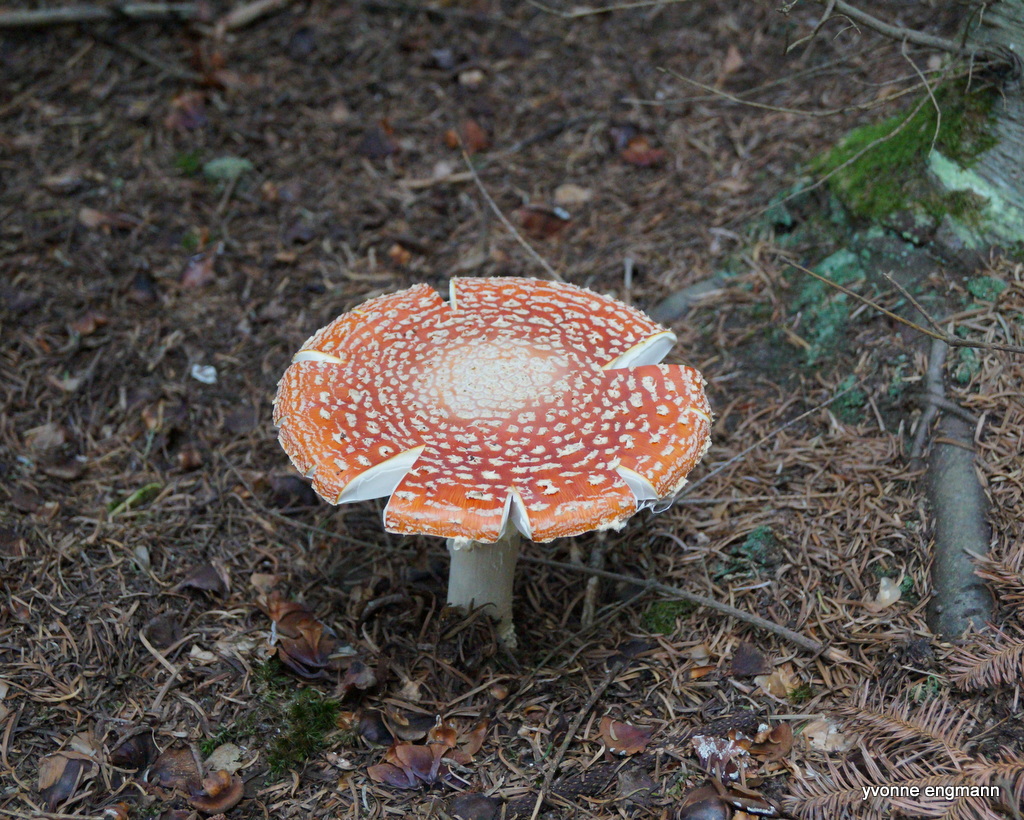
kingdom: Fungi
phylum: Basidiomycota
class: Agaricomycetes
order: Agaricales
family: Amanitaceae
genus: Amanita
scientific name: Amanita muscaria
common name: rød fluesvamp
